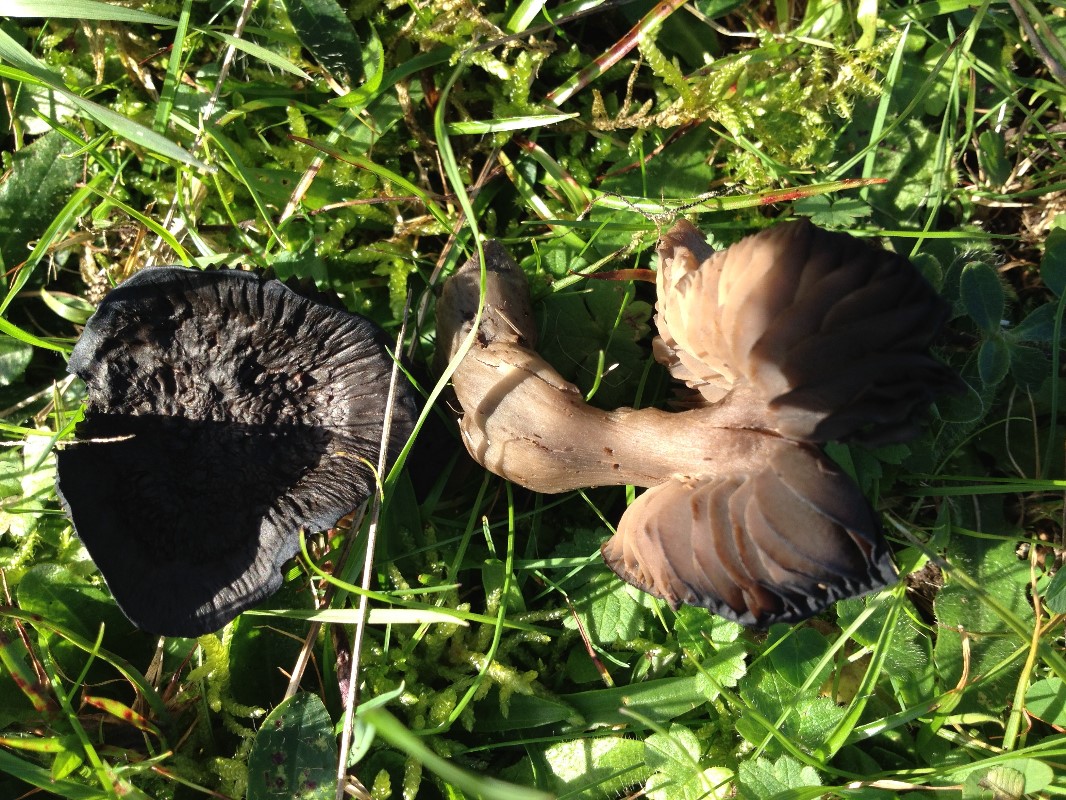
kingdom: Fungi
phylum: Basidiomycota
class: Agaricomycetes
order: Agaricales
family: Hygrophoraceae
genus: Neohygrocybe
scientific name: Neohygrocybe ovina
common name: rødmende vokshat
